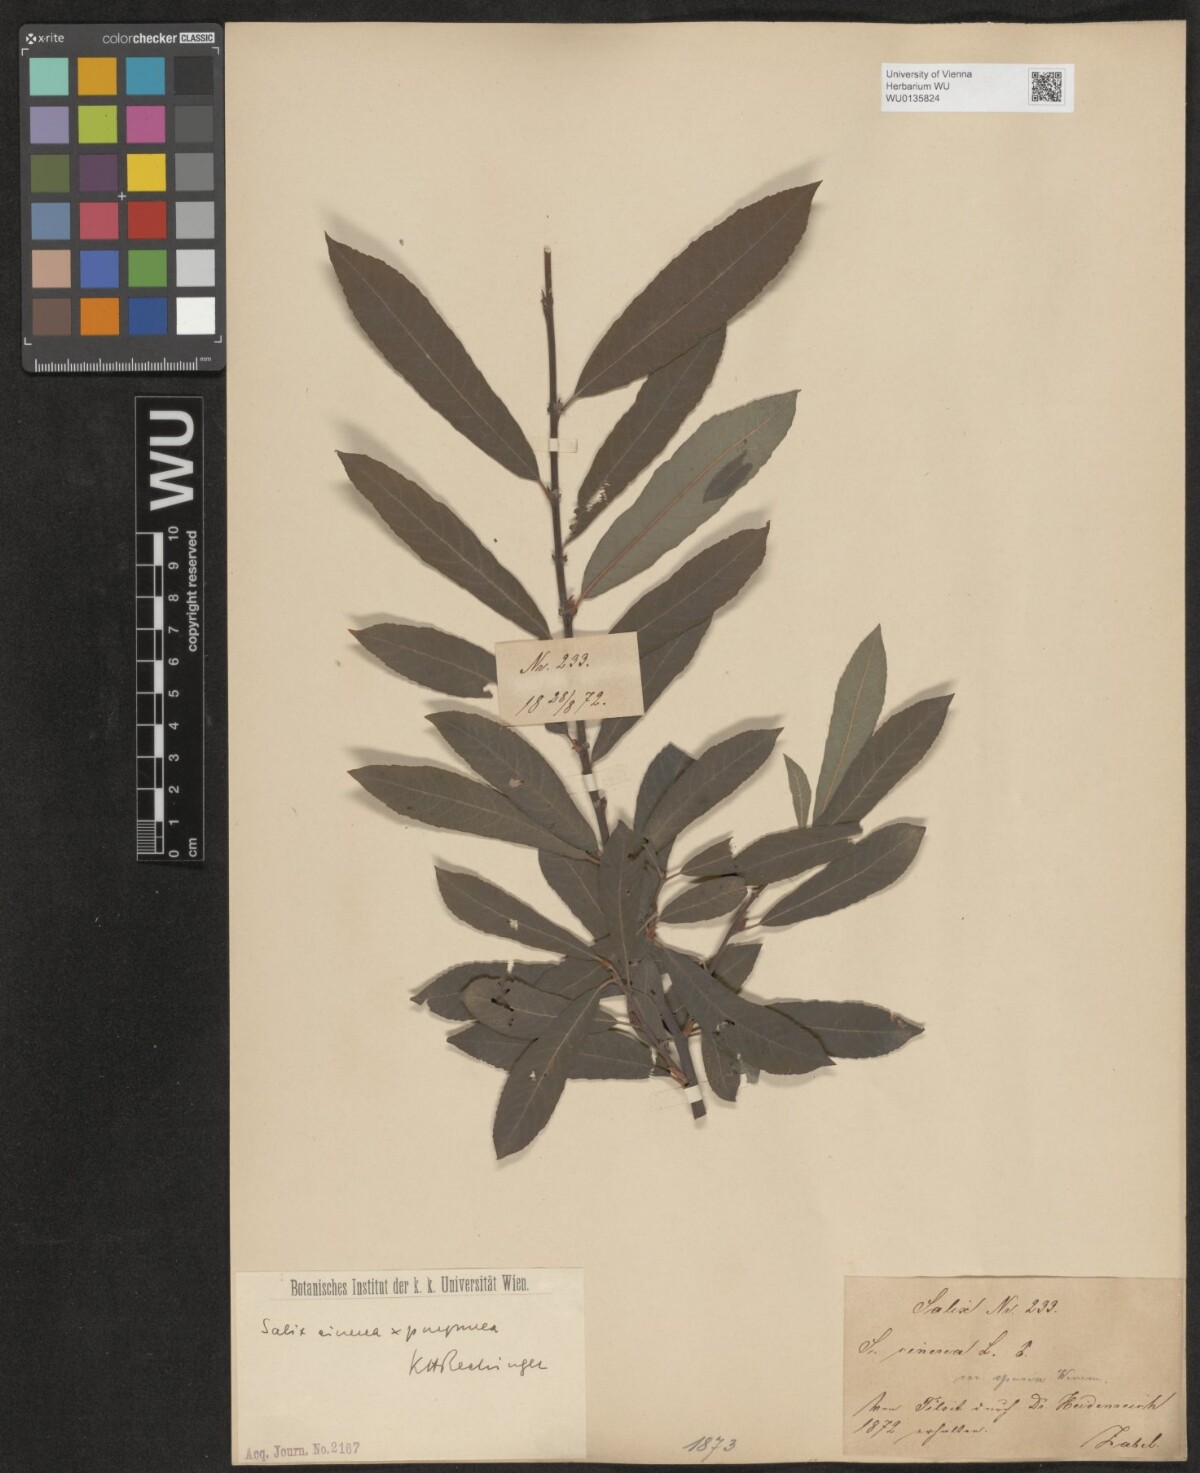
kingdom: Plantae
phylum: Tracheophyta
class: Magnoliopsida
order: Malpighiales
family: Salicaceae
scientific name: Salicaceae
